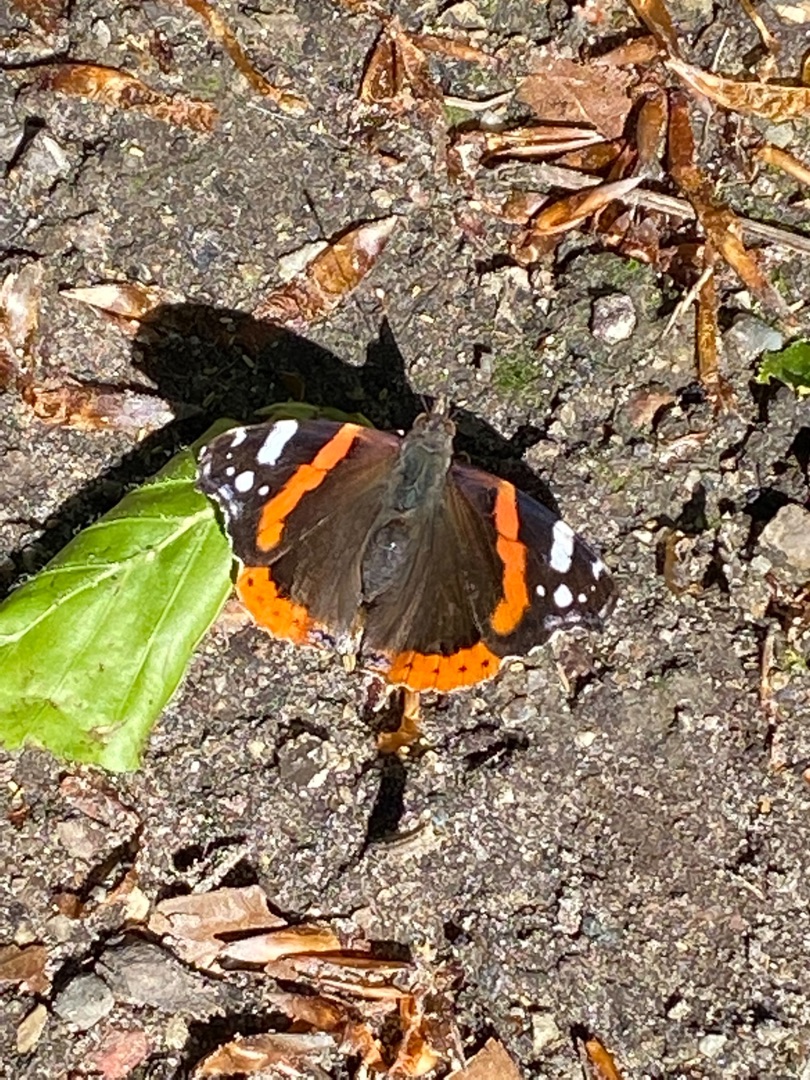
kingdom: Animalia
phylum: Arthropoda
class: Insecta
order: Lepidoptera
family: Nymphalidae
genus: Vanessa
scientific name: Vanessa atalanta
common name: Admiral
